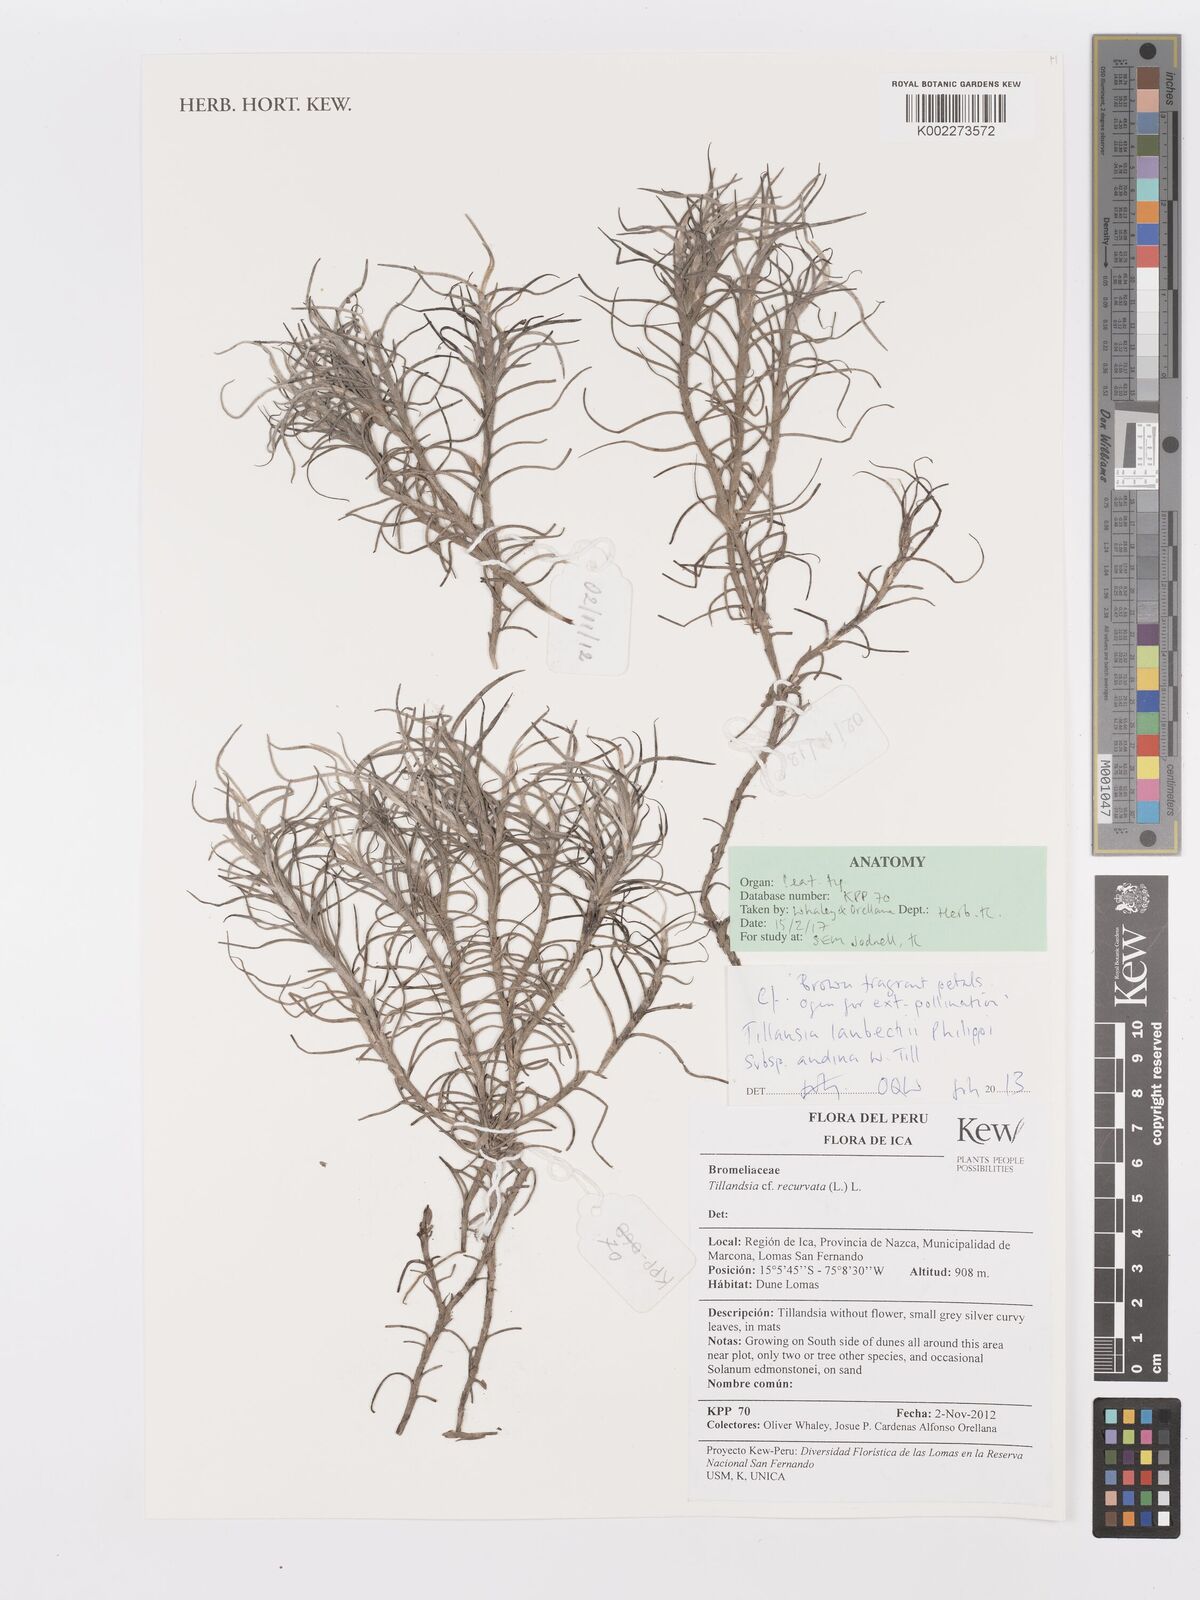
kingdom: Plantae
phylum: Tracheophyta
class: Liliopsida
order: Poales
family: Bromeliaceae
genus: Tillandsia
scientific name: Tillandsia landbeckii
